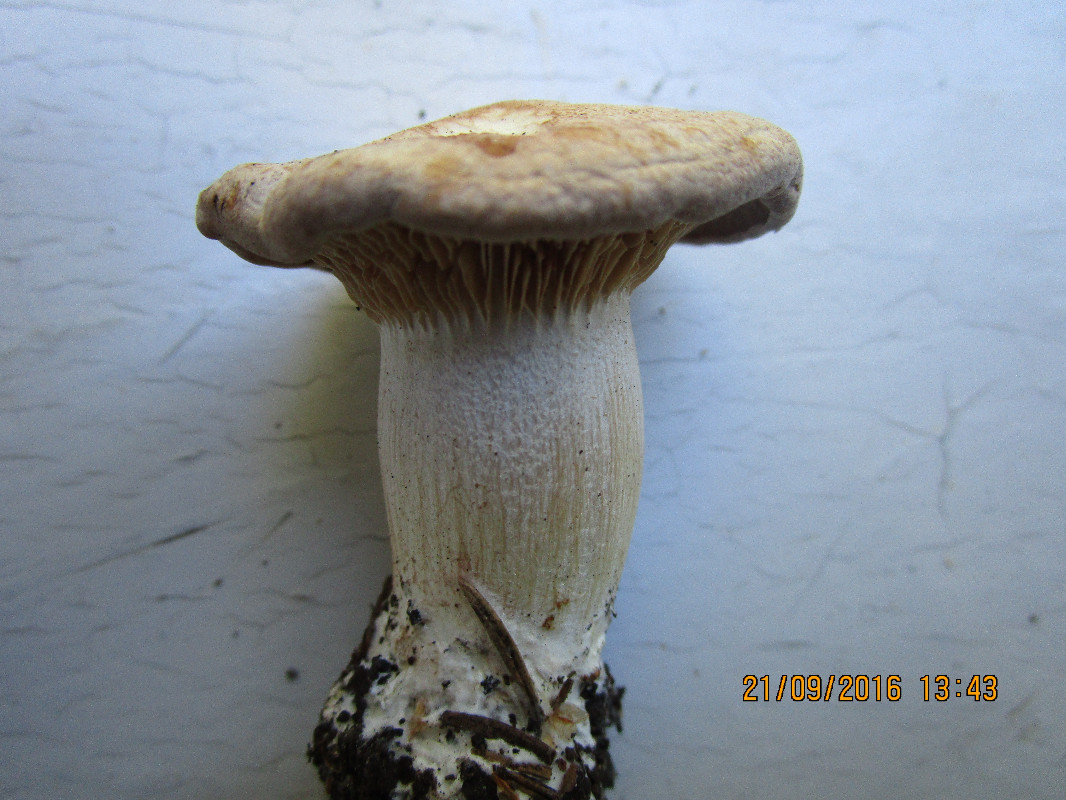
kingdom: Fungi
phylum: Basidiomycota
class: Agaricomycetes
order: Agaricales
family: Entolomataceae
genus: Clitopilus
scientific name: Clitopilus geminus
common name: kødfarvet troldhat
